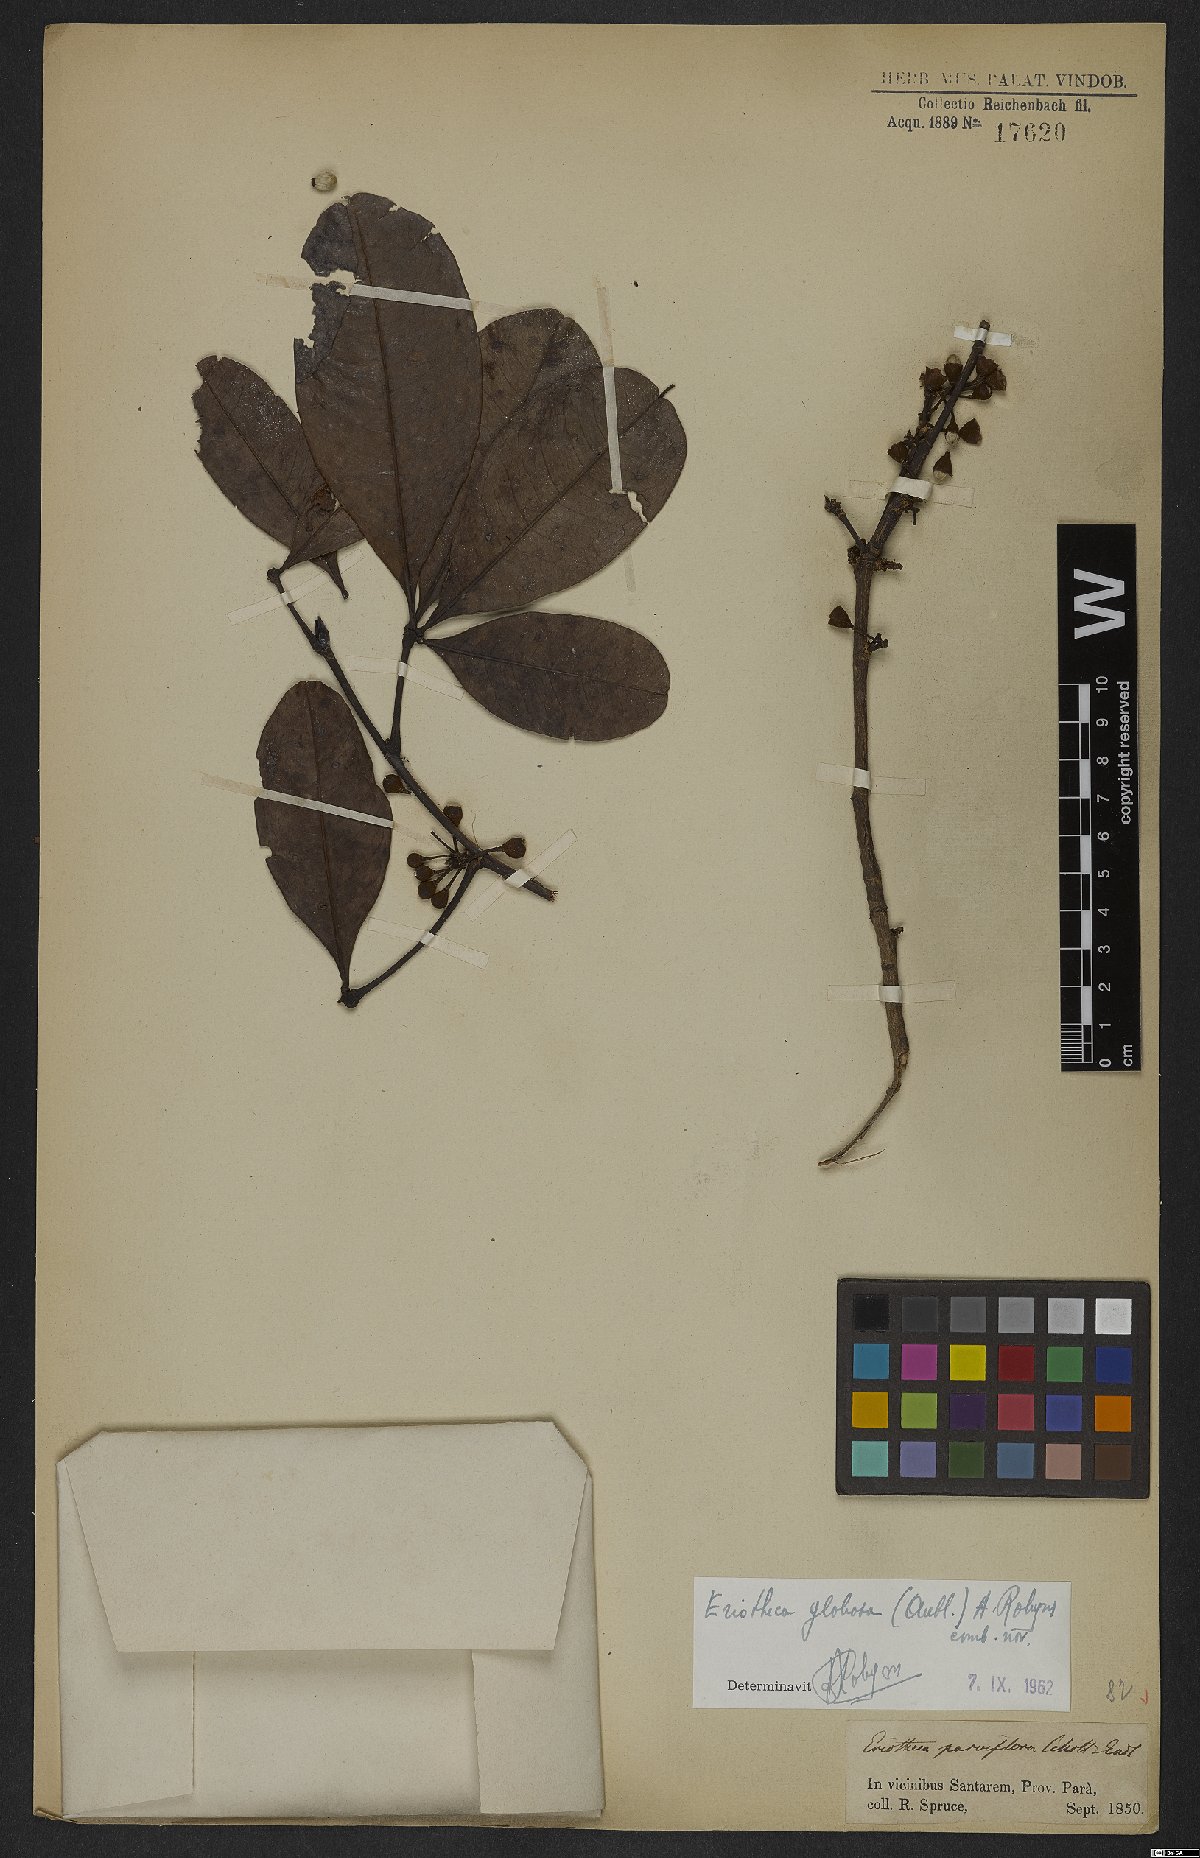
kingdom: Plantae
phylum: Tracheophyta
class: Magnoliopsida
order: Malvales
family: Malvaceae
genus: Eriotheca
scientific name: Eriotheca globosa
